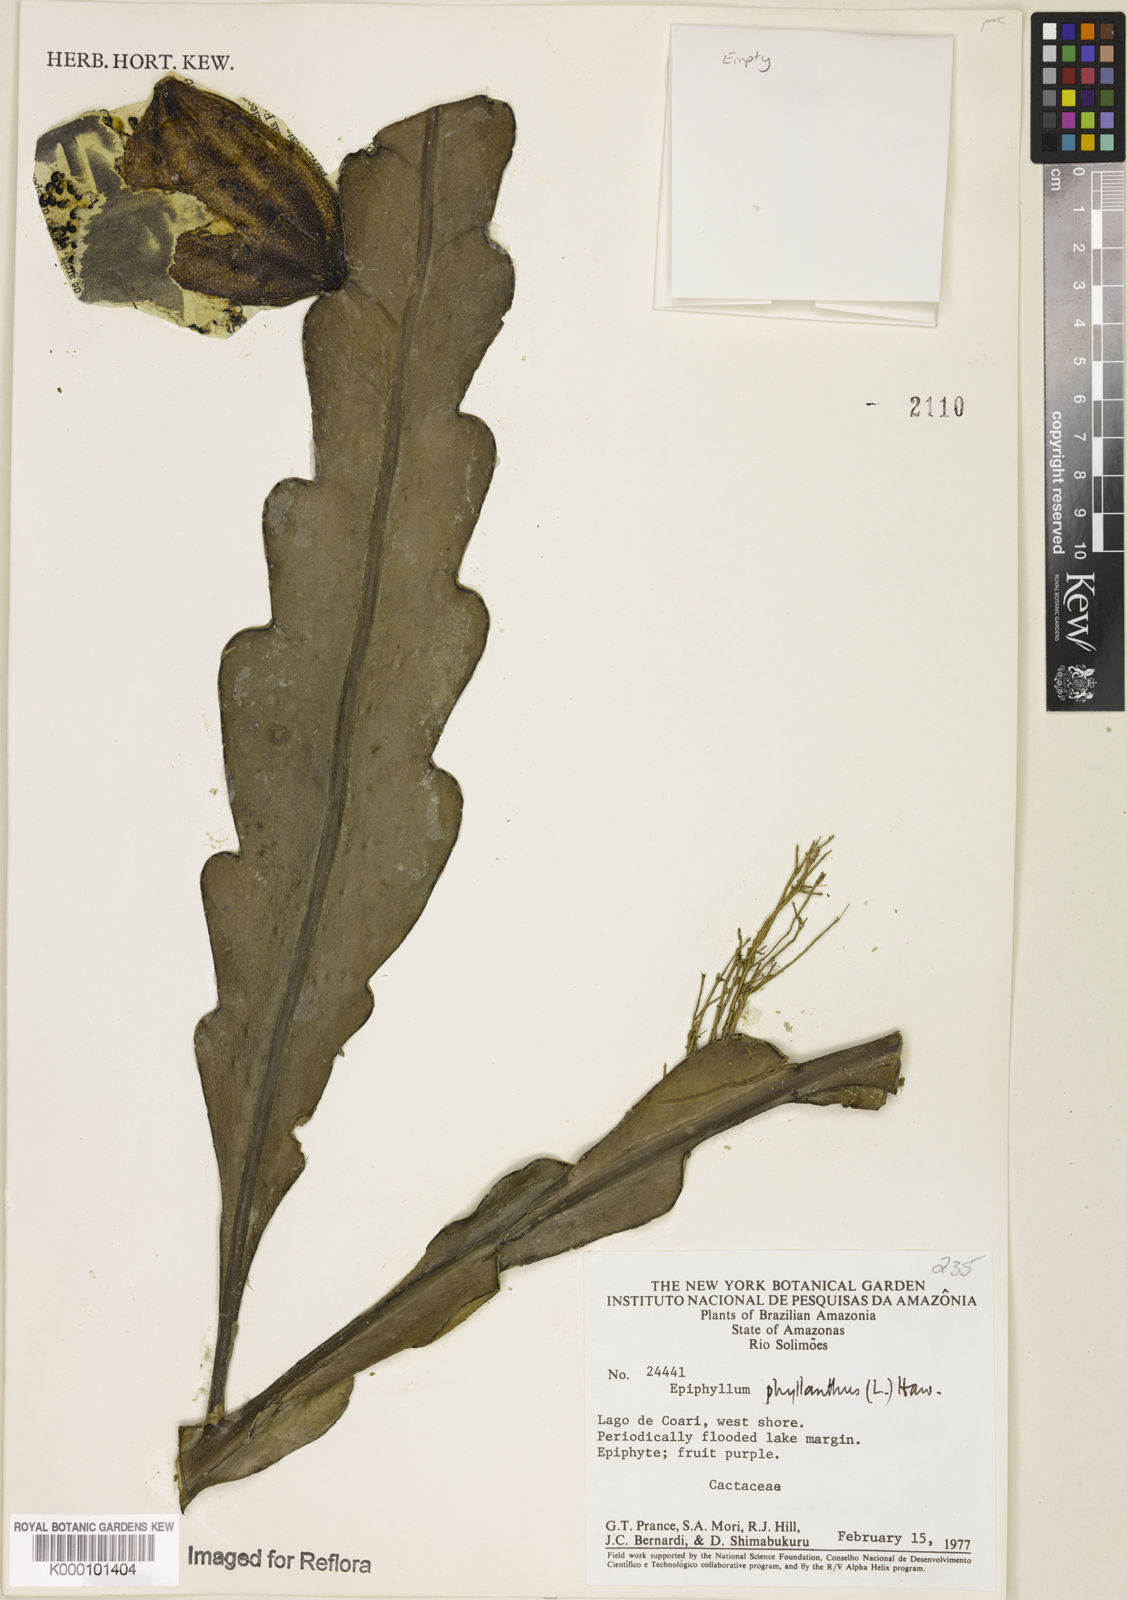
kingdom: Plantae
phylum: Tracheophyta
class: Magnoliopsida
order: Caryophyllales
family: Cactaceae
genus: Epiphyllum
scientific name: Epiphyllum phyllanthus
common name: Climbing cactus
